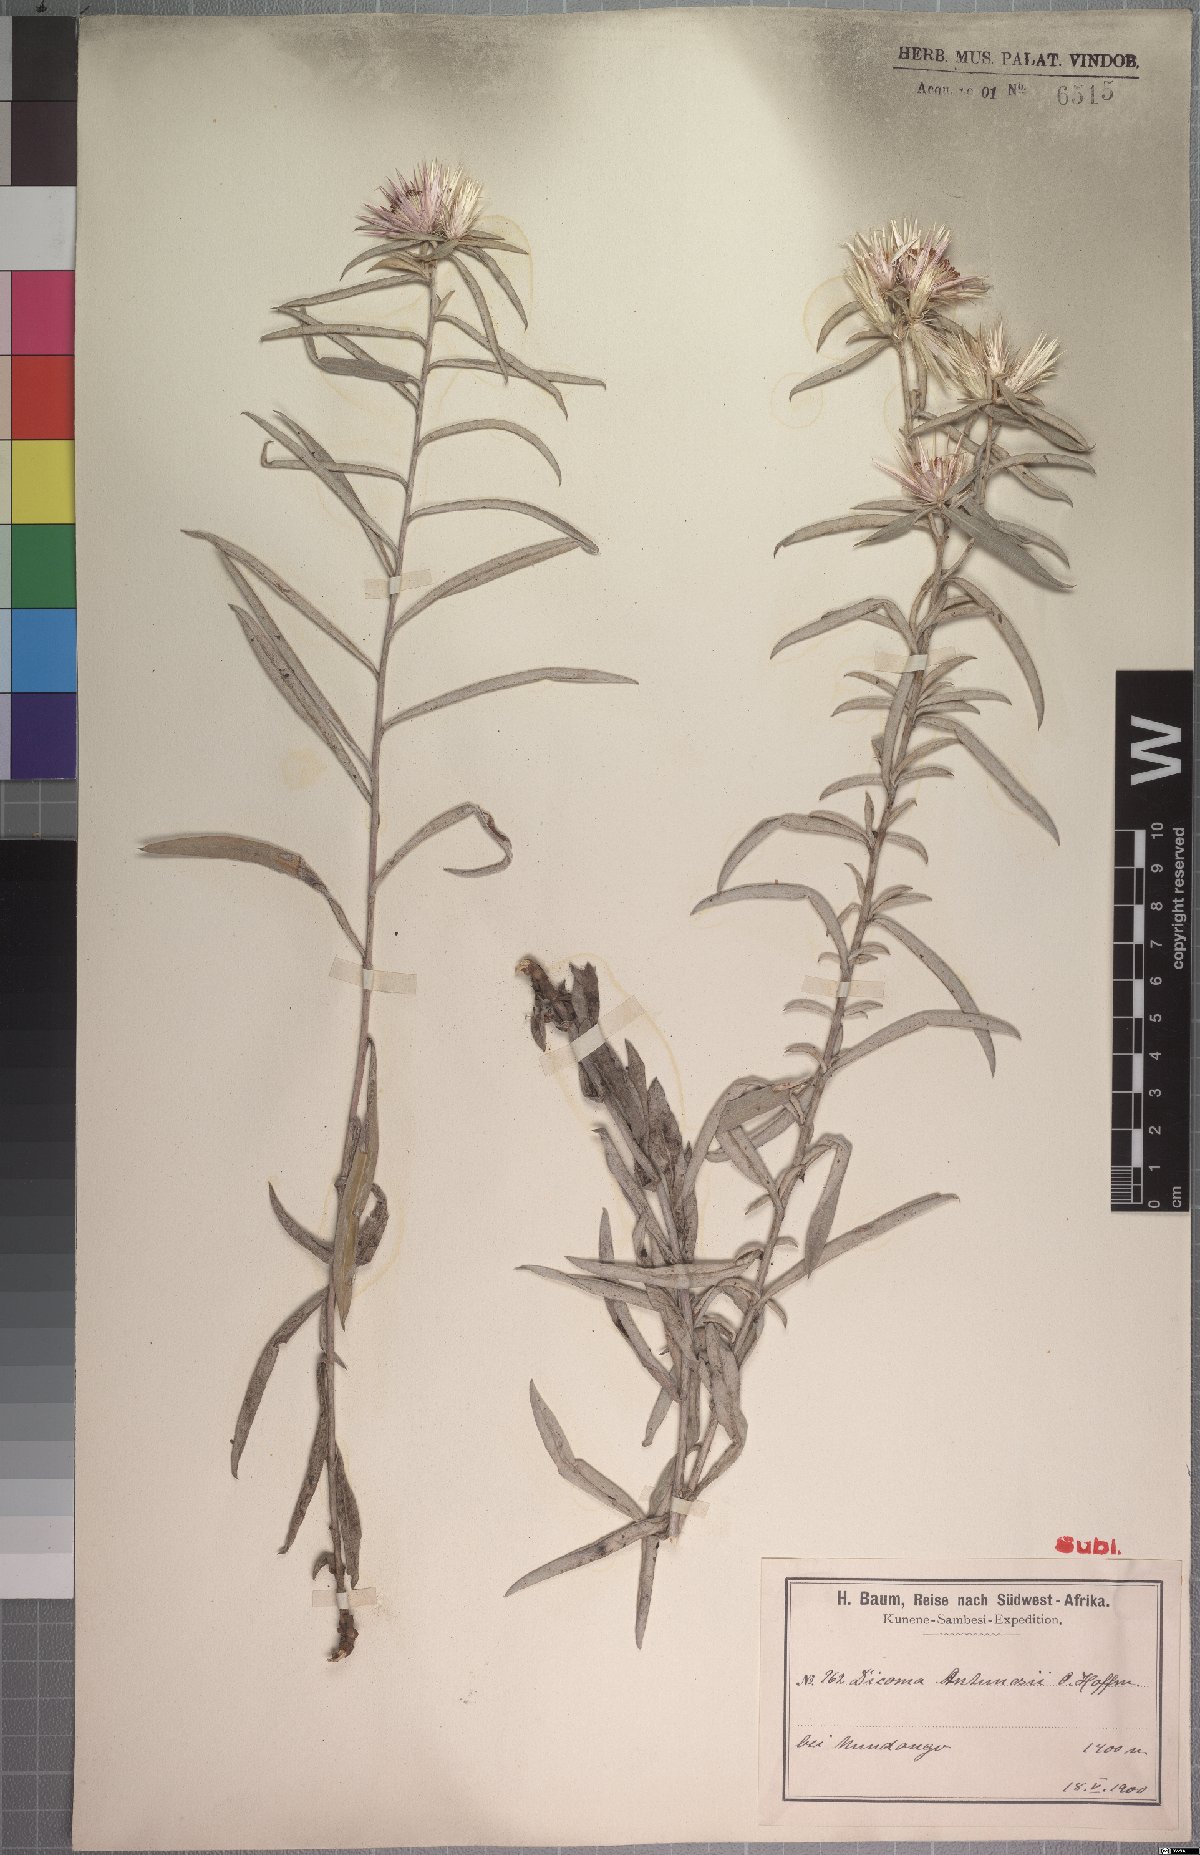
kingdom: Plantae
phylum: Tracheophyta
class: Magnoliopsida
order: Asterales
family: Asteraceae
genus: Dicoma
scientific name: Dicoma antunesii
